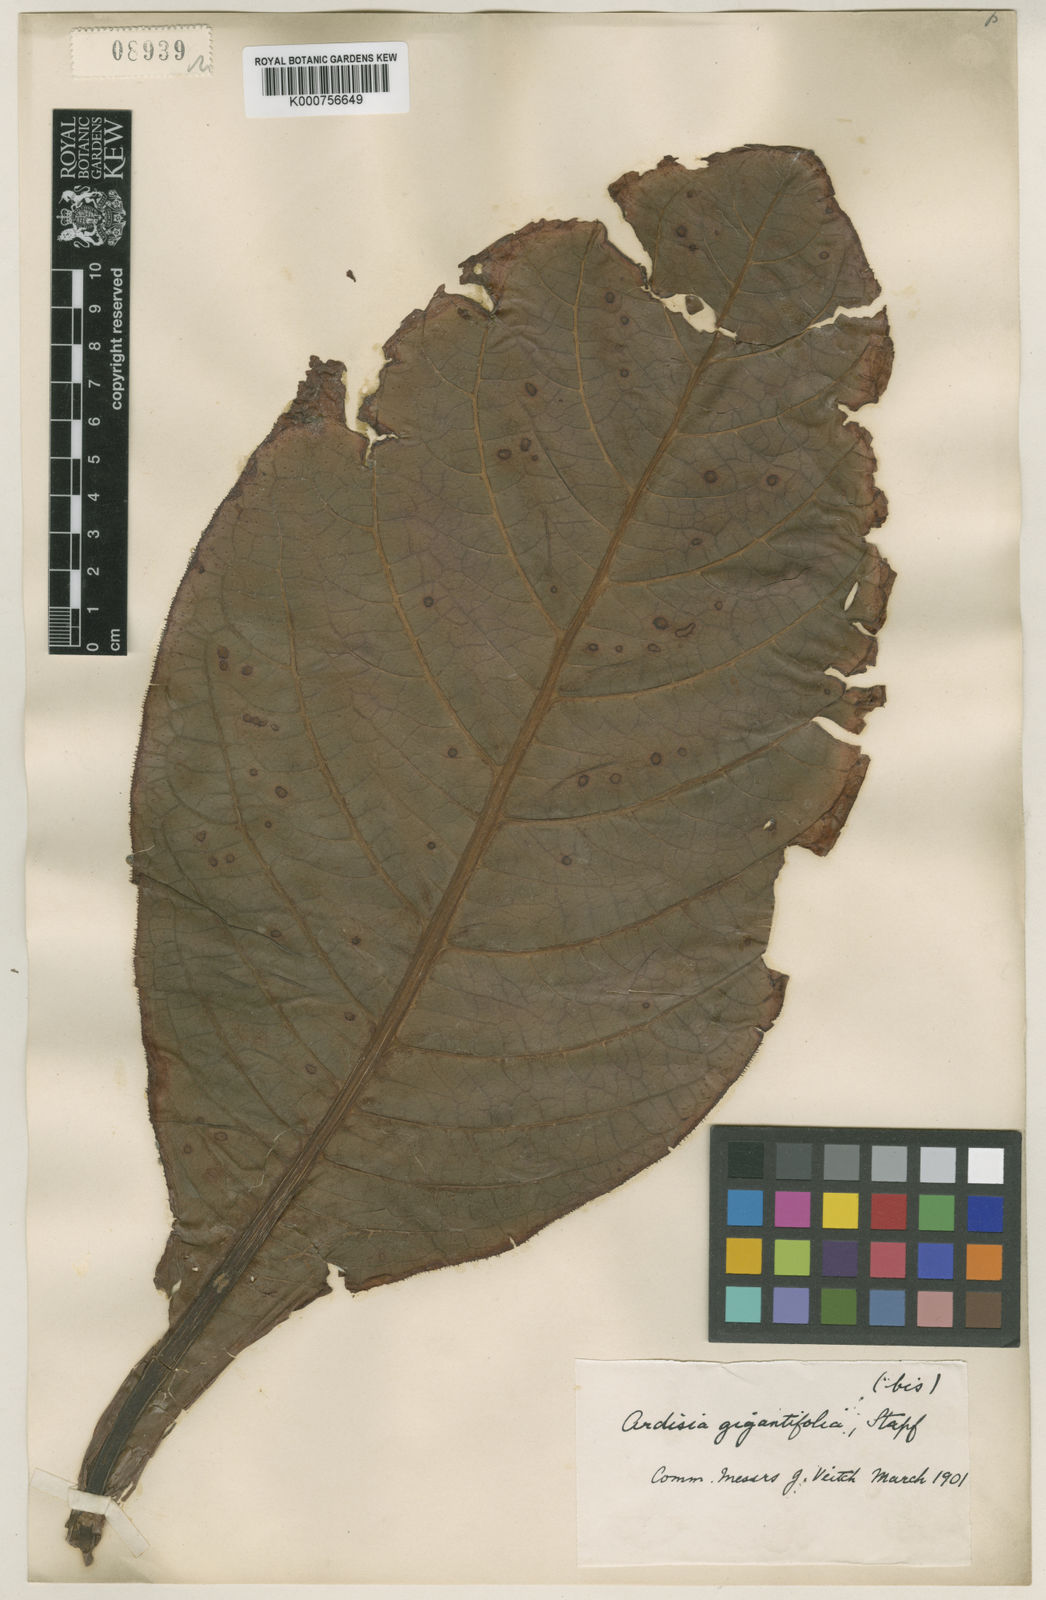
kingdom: Plantae
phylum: Tracheophyta
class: Magnoliopsida
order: Ericales
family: Primulaceae
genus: Ardisia
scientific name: Ardisia gigantifolia
